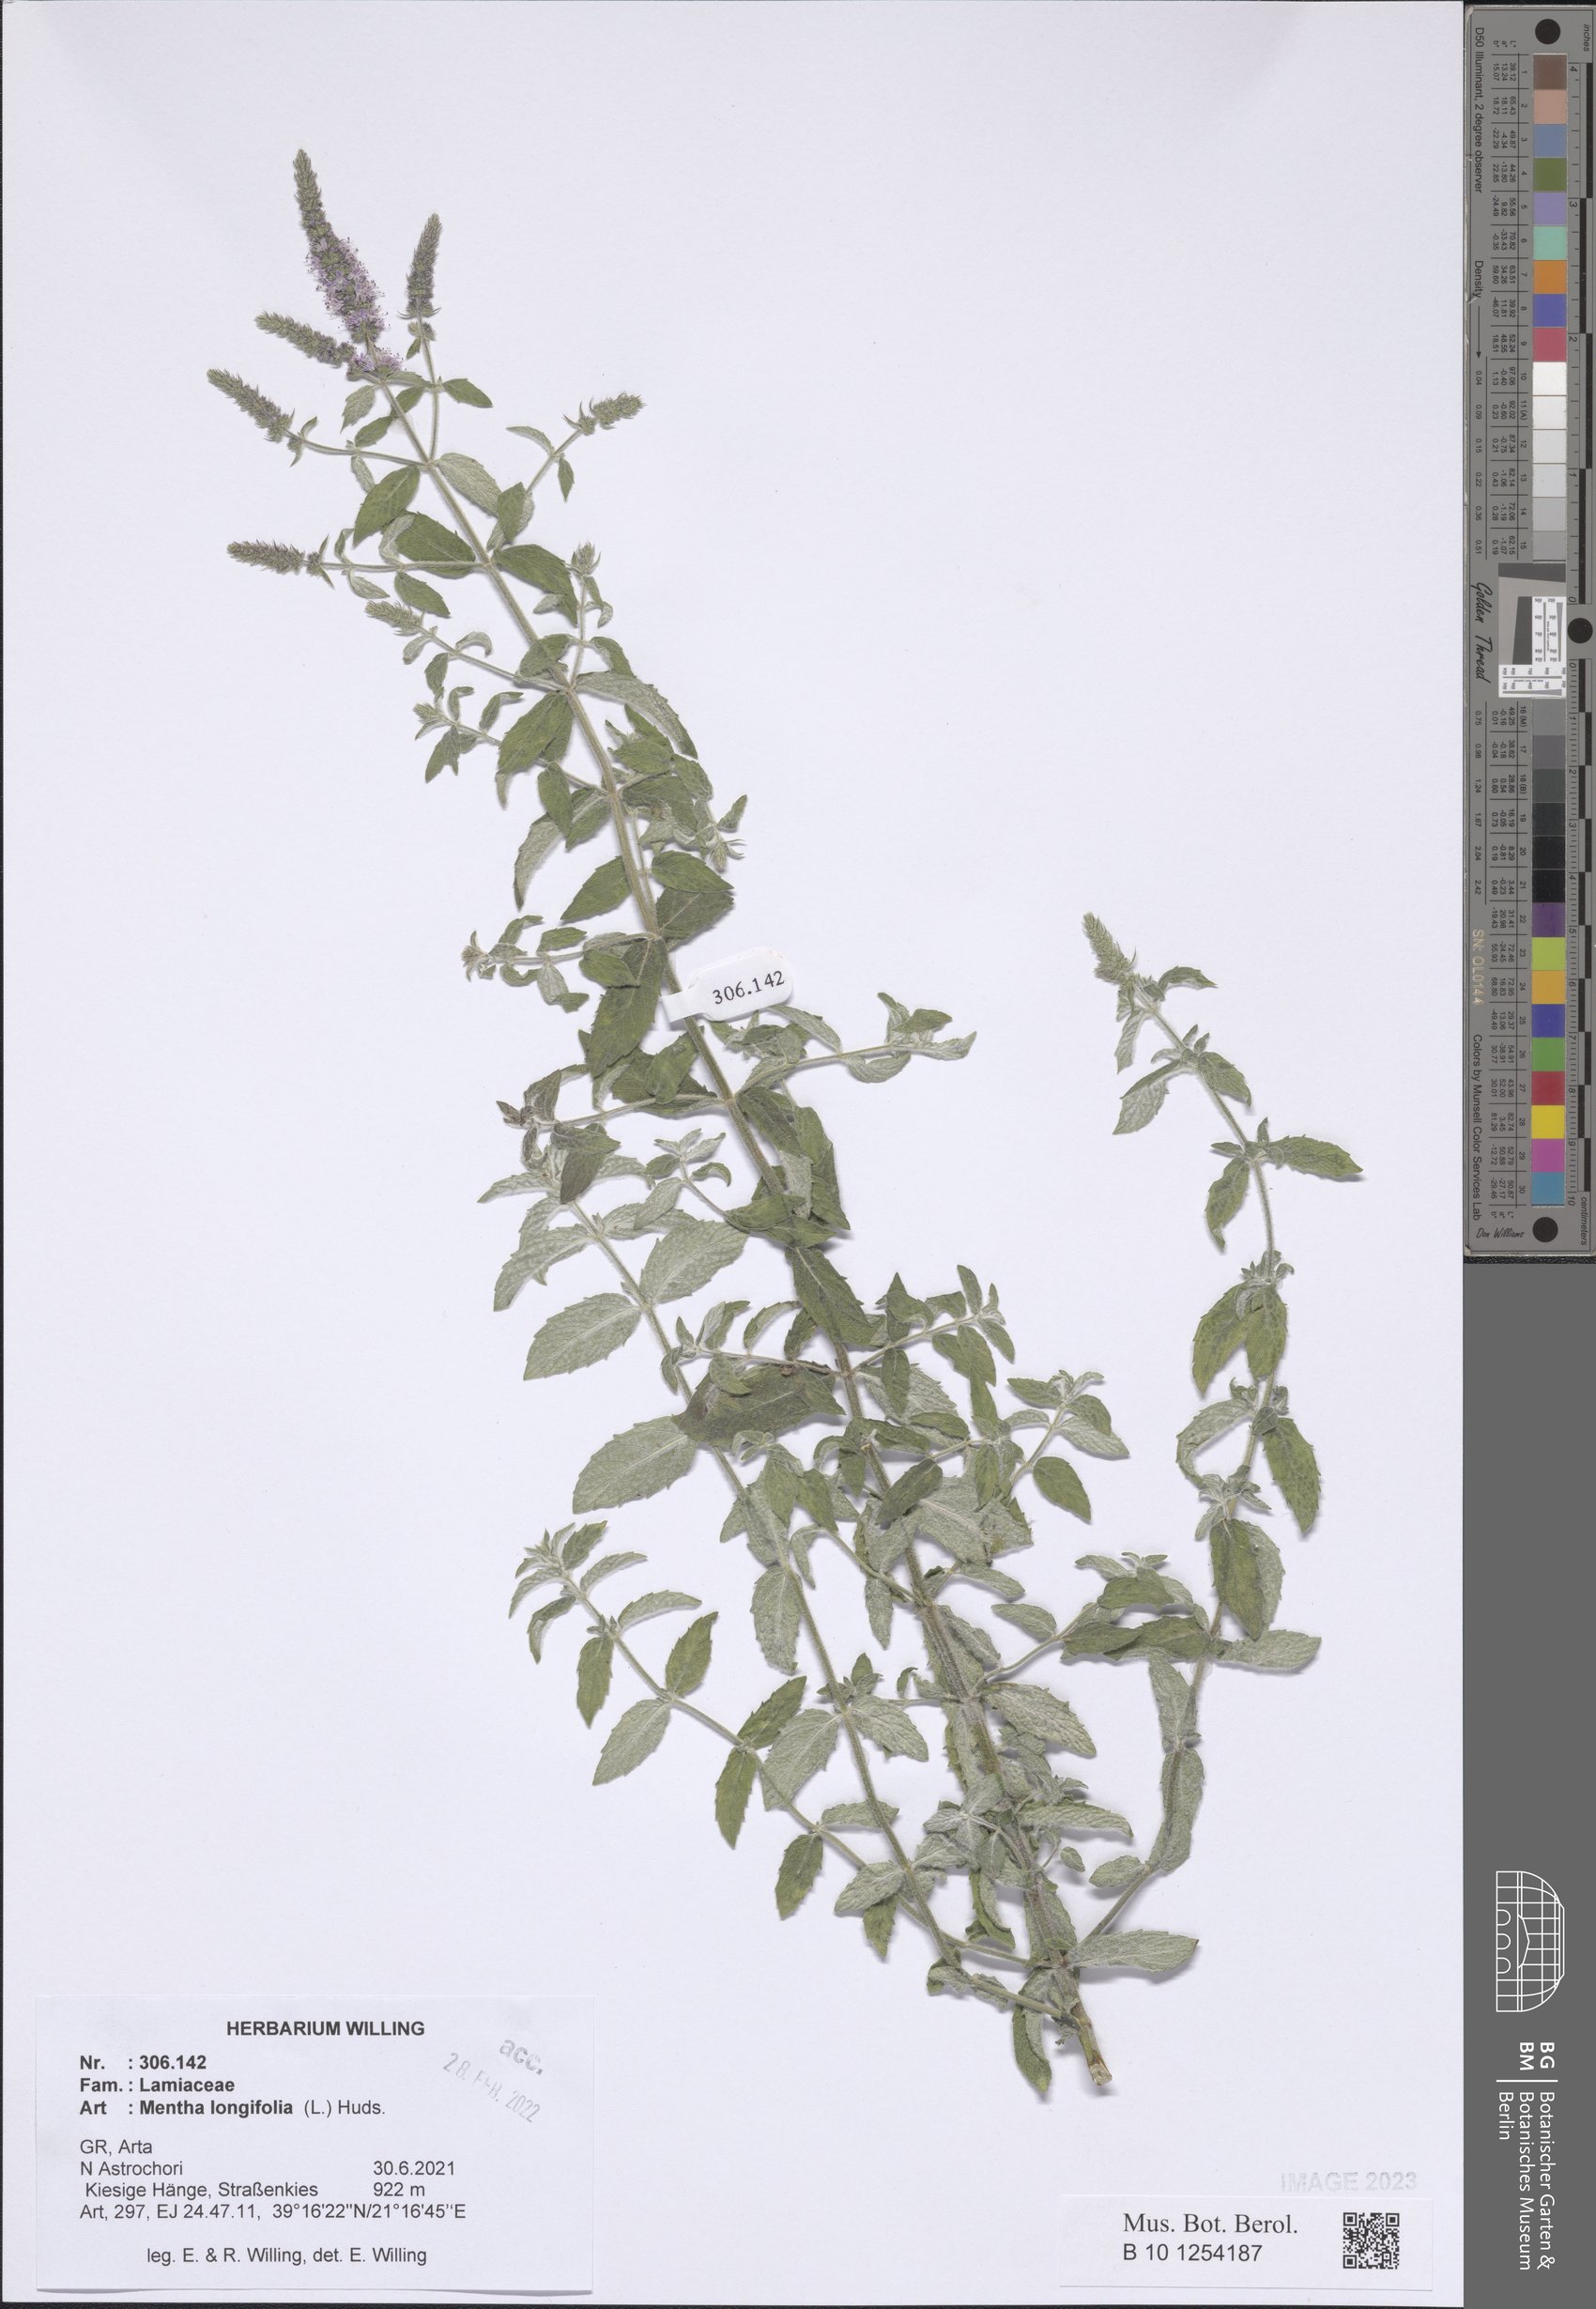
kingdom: Plantae
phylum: Tracheophyta
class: Magnoliopsida
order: Lamiales
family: Lamiaceae
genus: Mentha
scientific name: Mentha longifolia
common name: Horse mint
